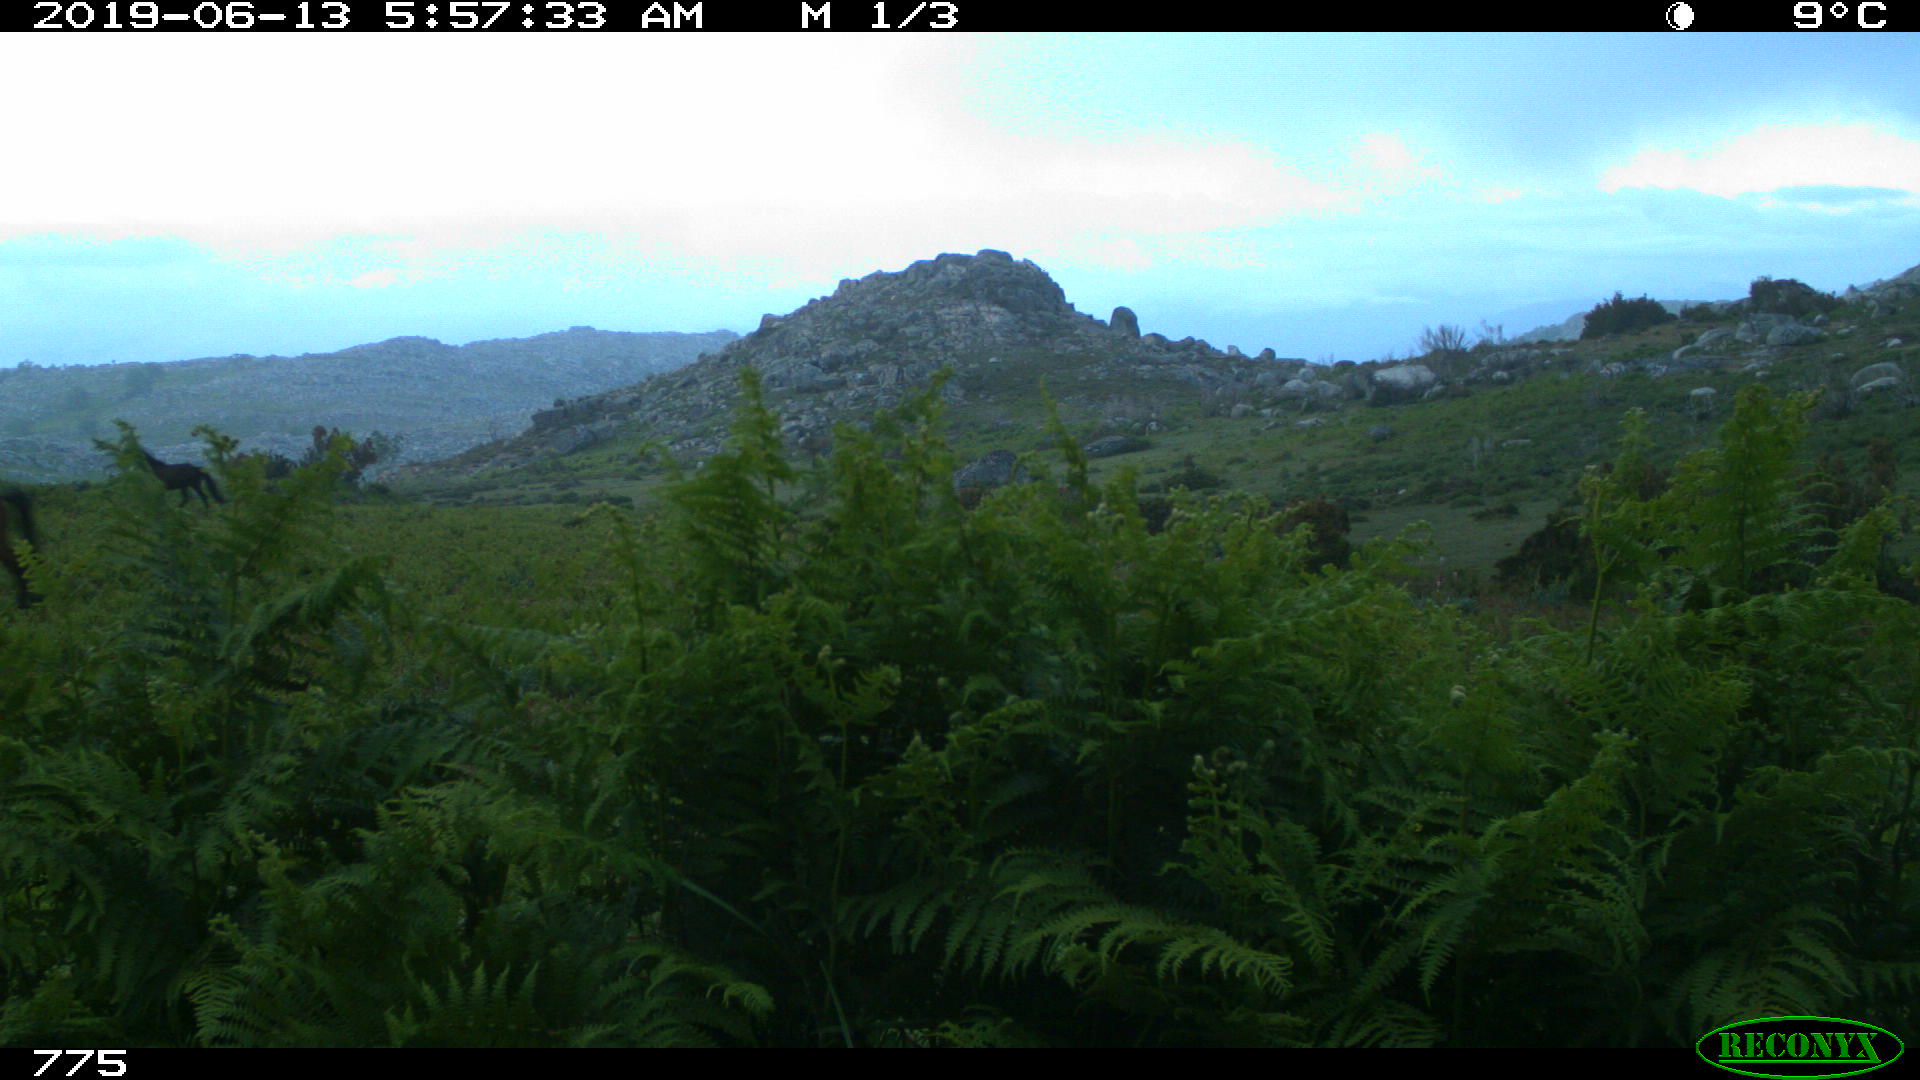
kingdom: Animalia
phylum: Chordata
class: Mammalia
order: Perissodactyla
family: Equidae
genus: Equus
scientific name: Equus caballus
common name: Horse
